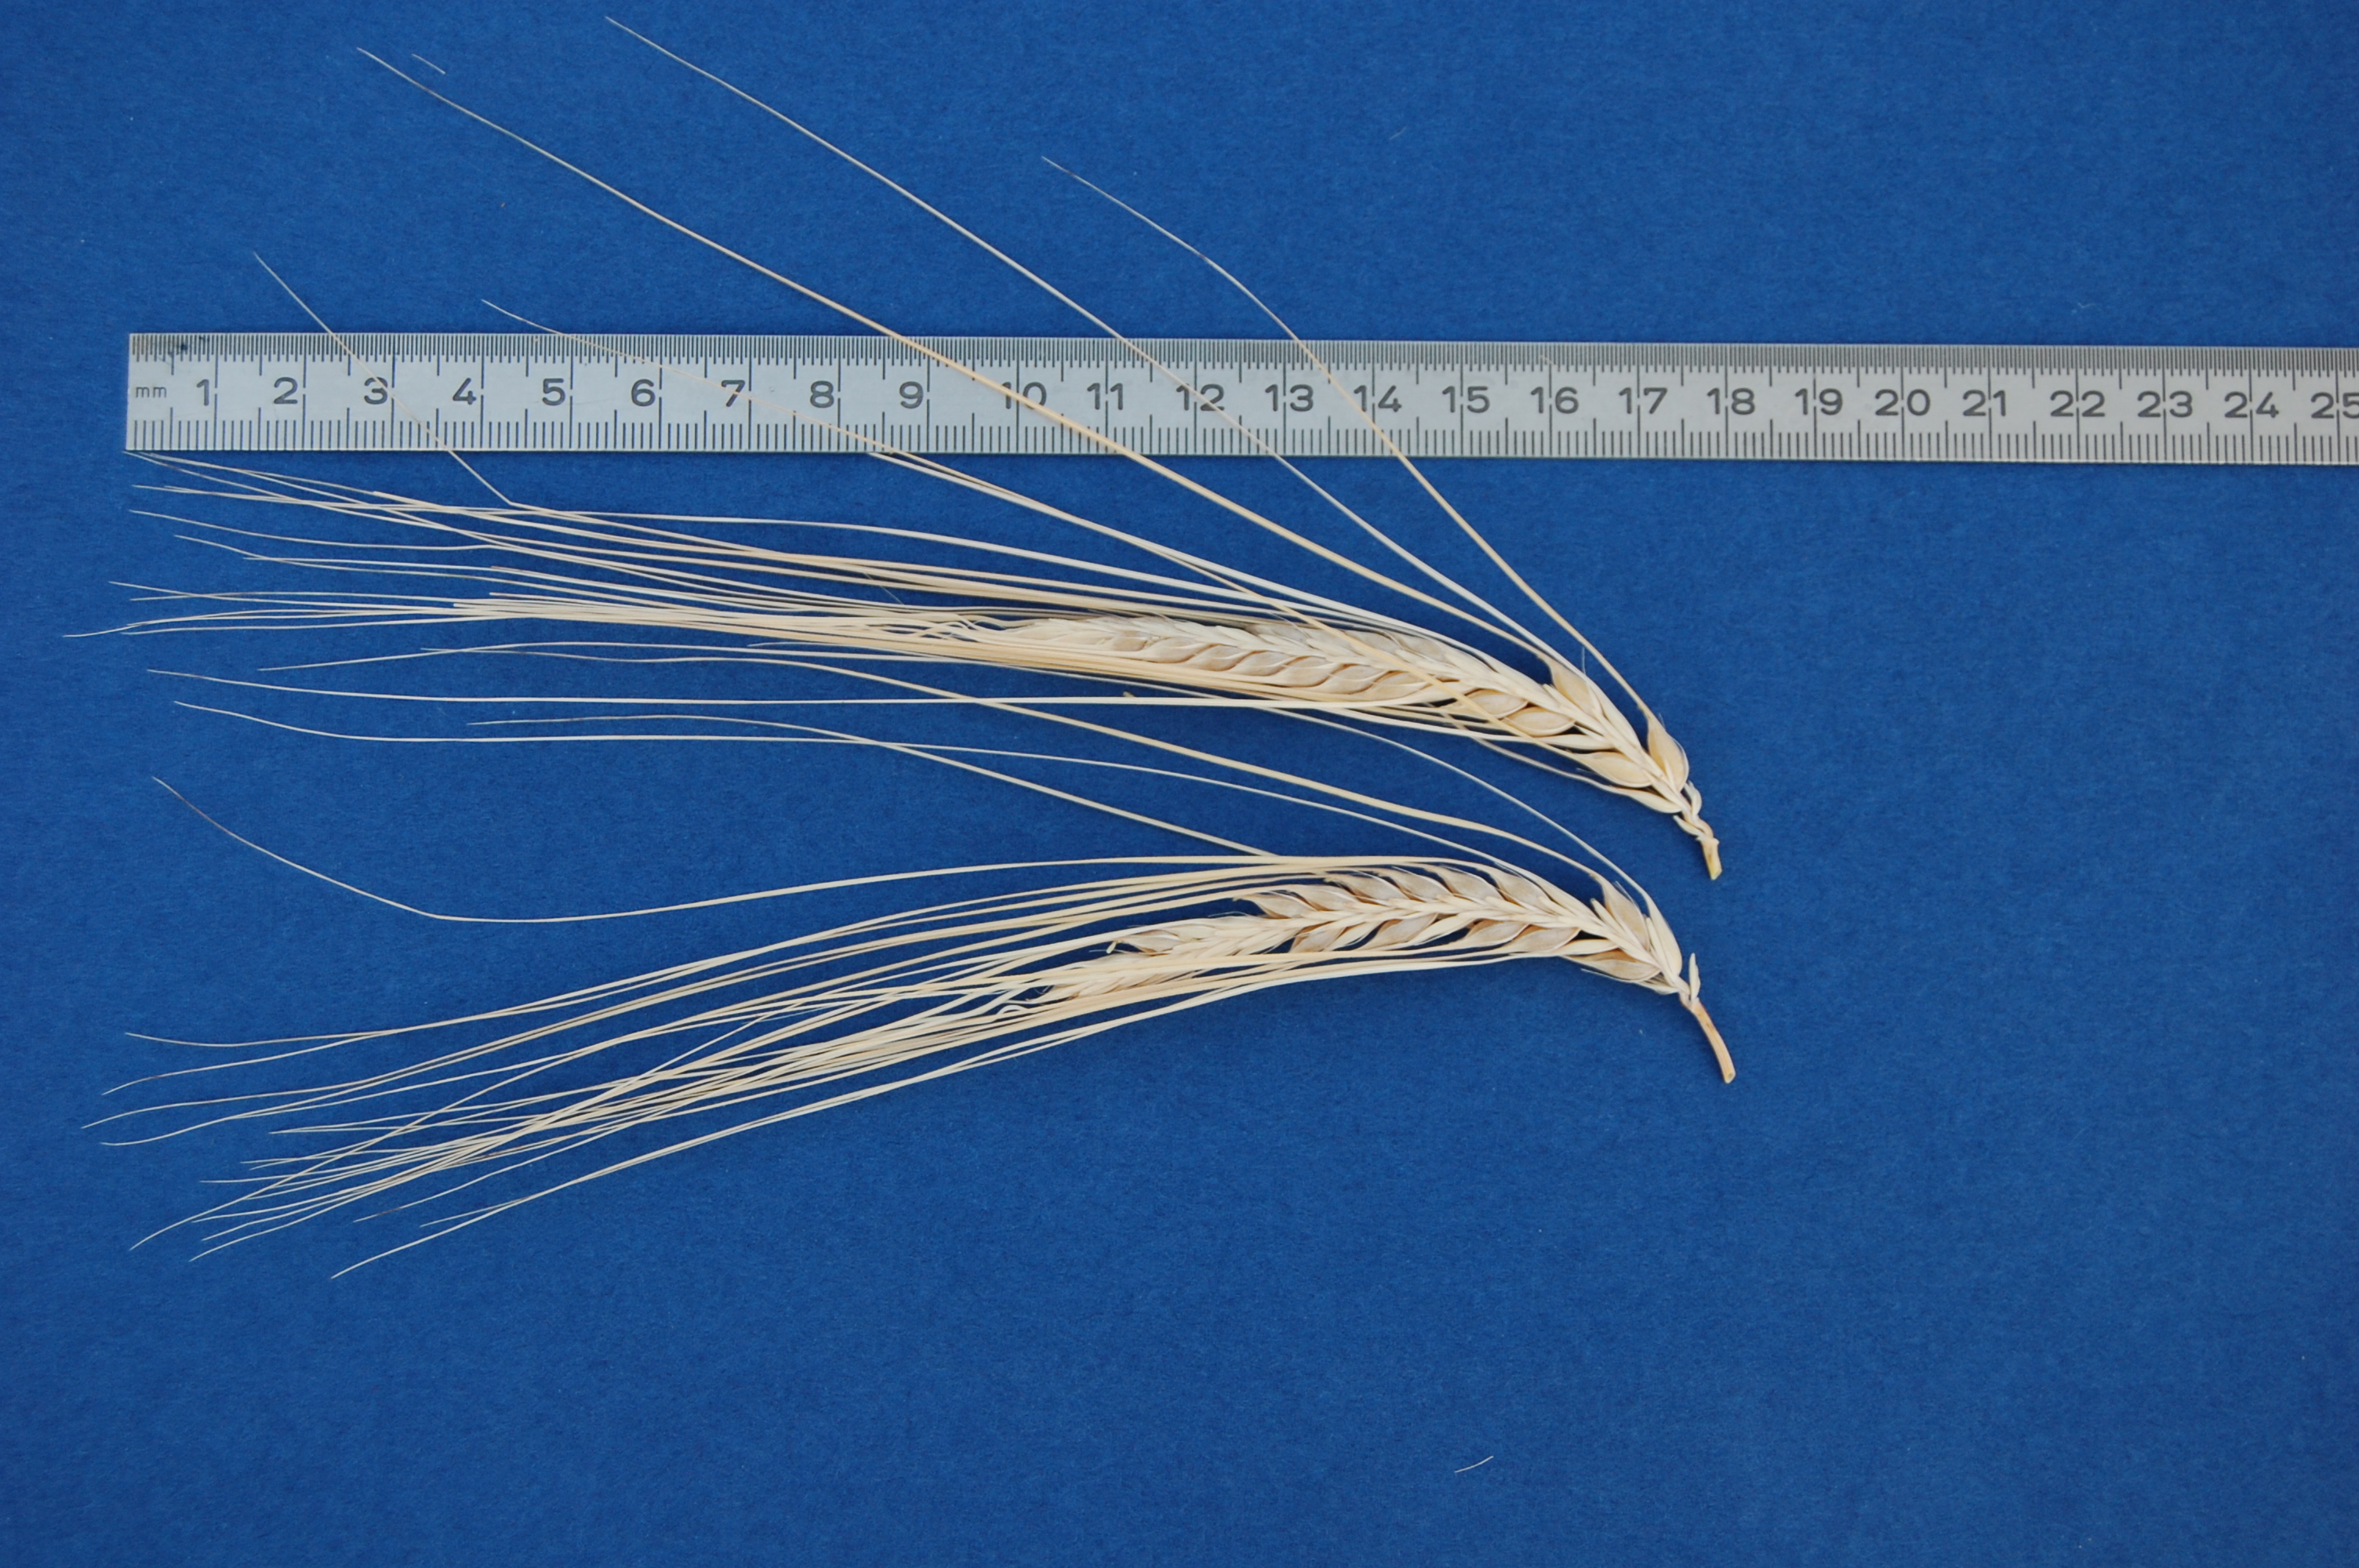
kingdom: Plantae
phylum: Tracheophyta
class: Liliopsida
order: Poales
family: Poaceae
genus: Hordeum
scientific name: Hordeum vulgare
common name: Common barley
